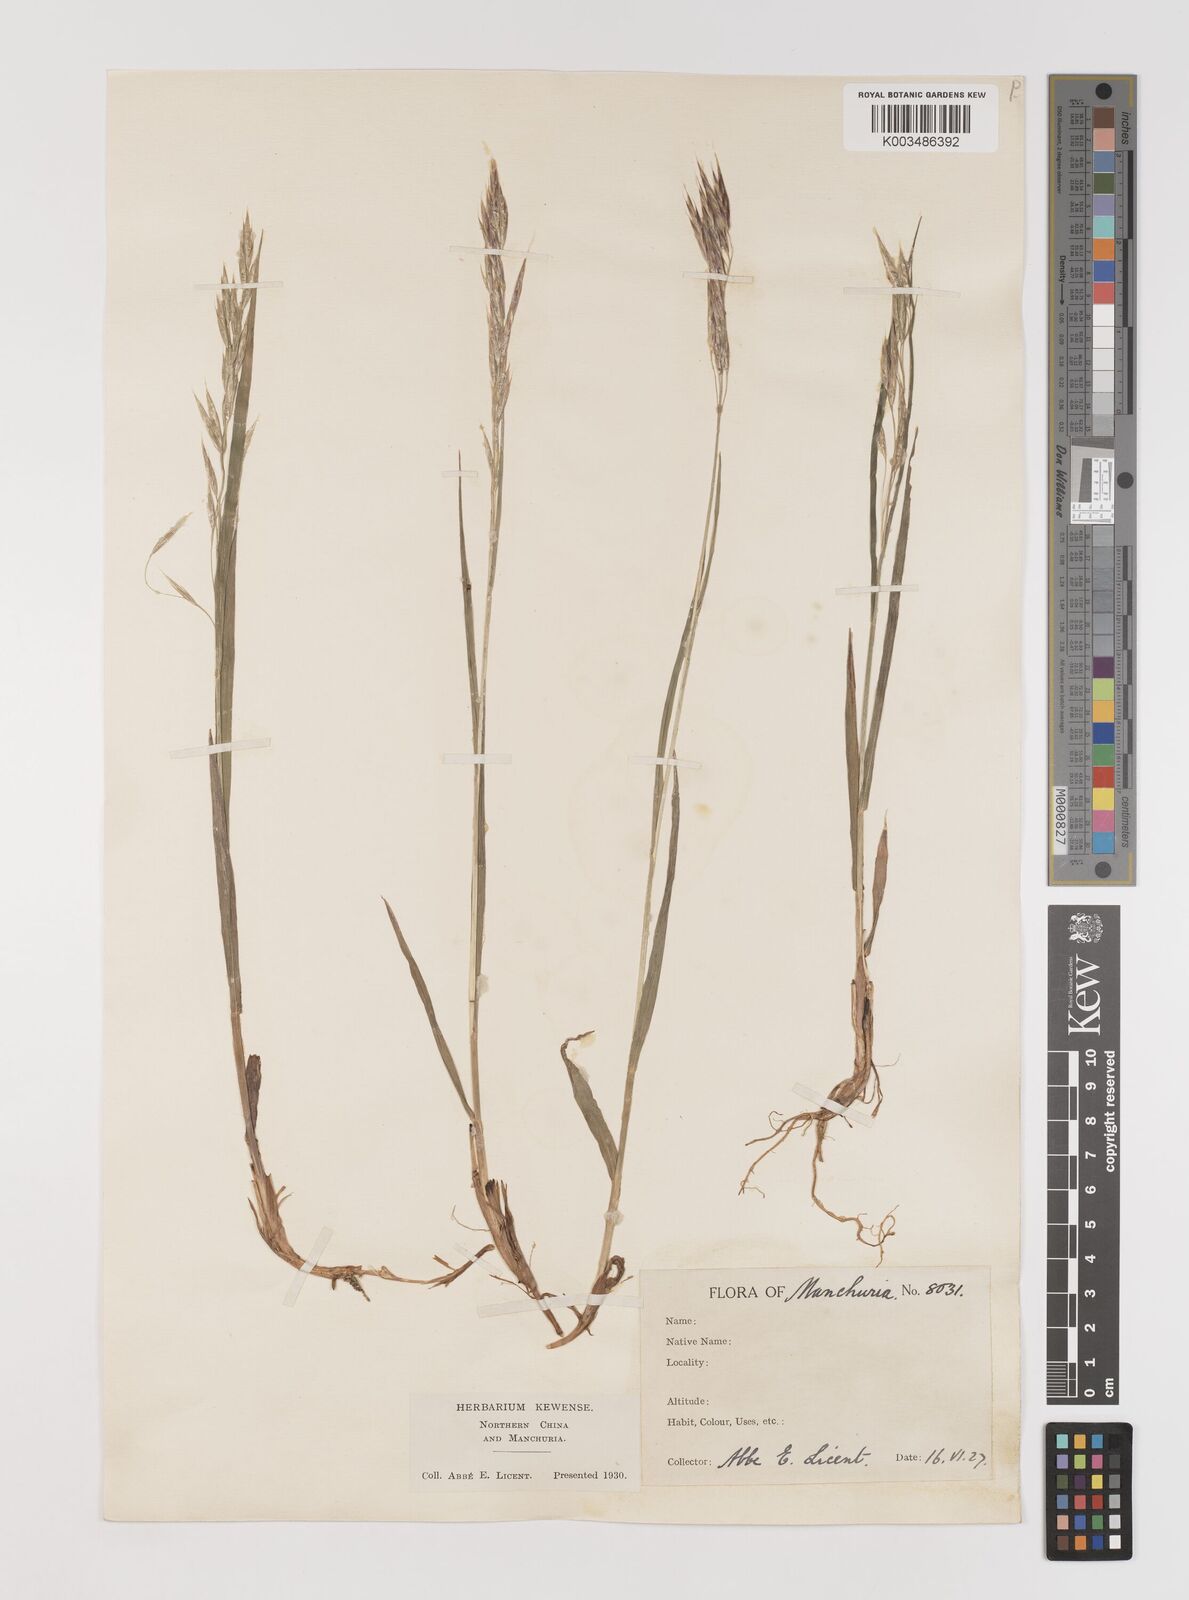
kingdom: Plantae
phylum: Tracheophyta
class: Liliopsida
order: Poales
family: Poaceae
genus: Bromus
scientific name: Bromus
